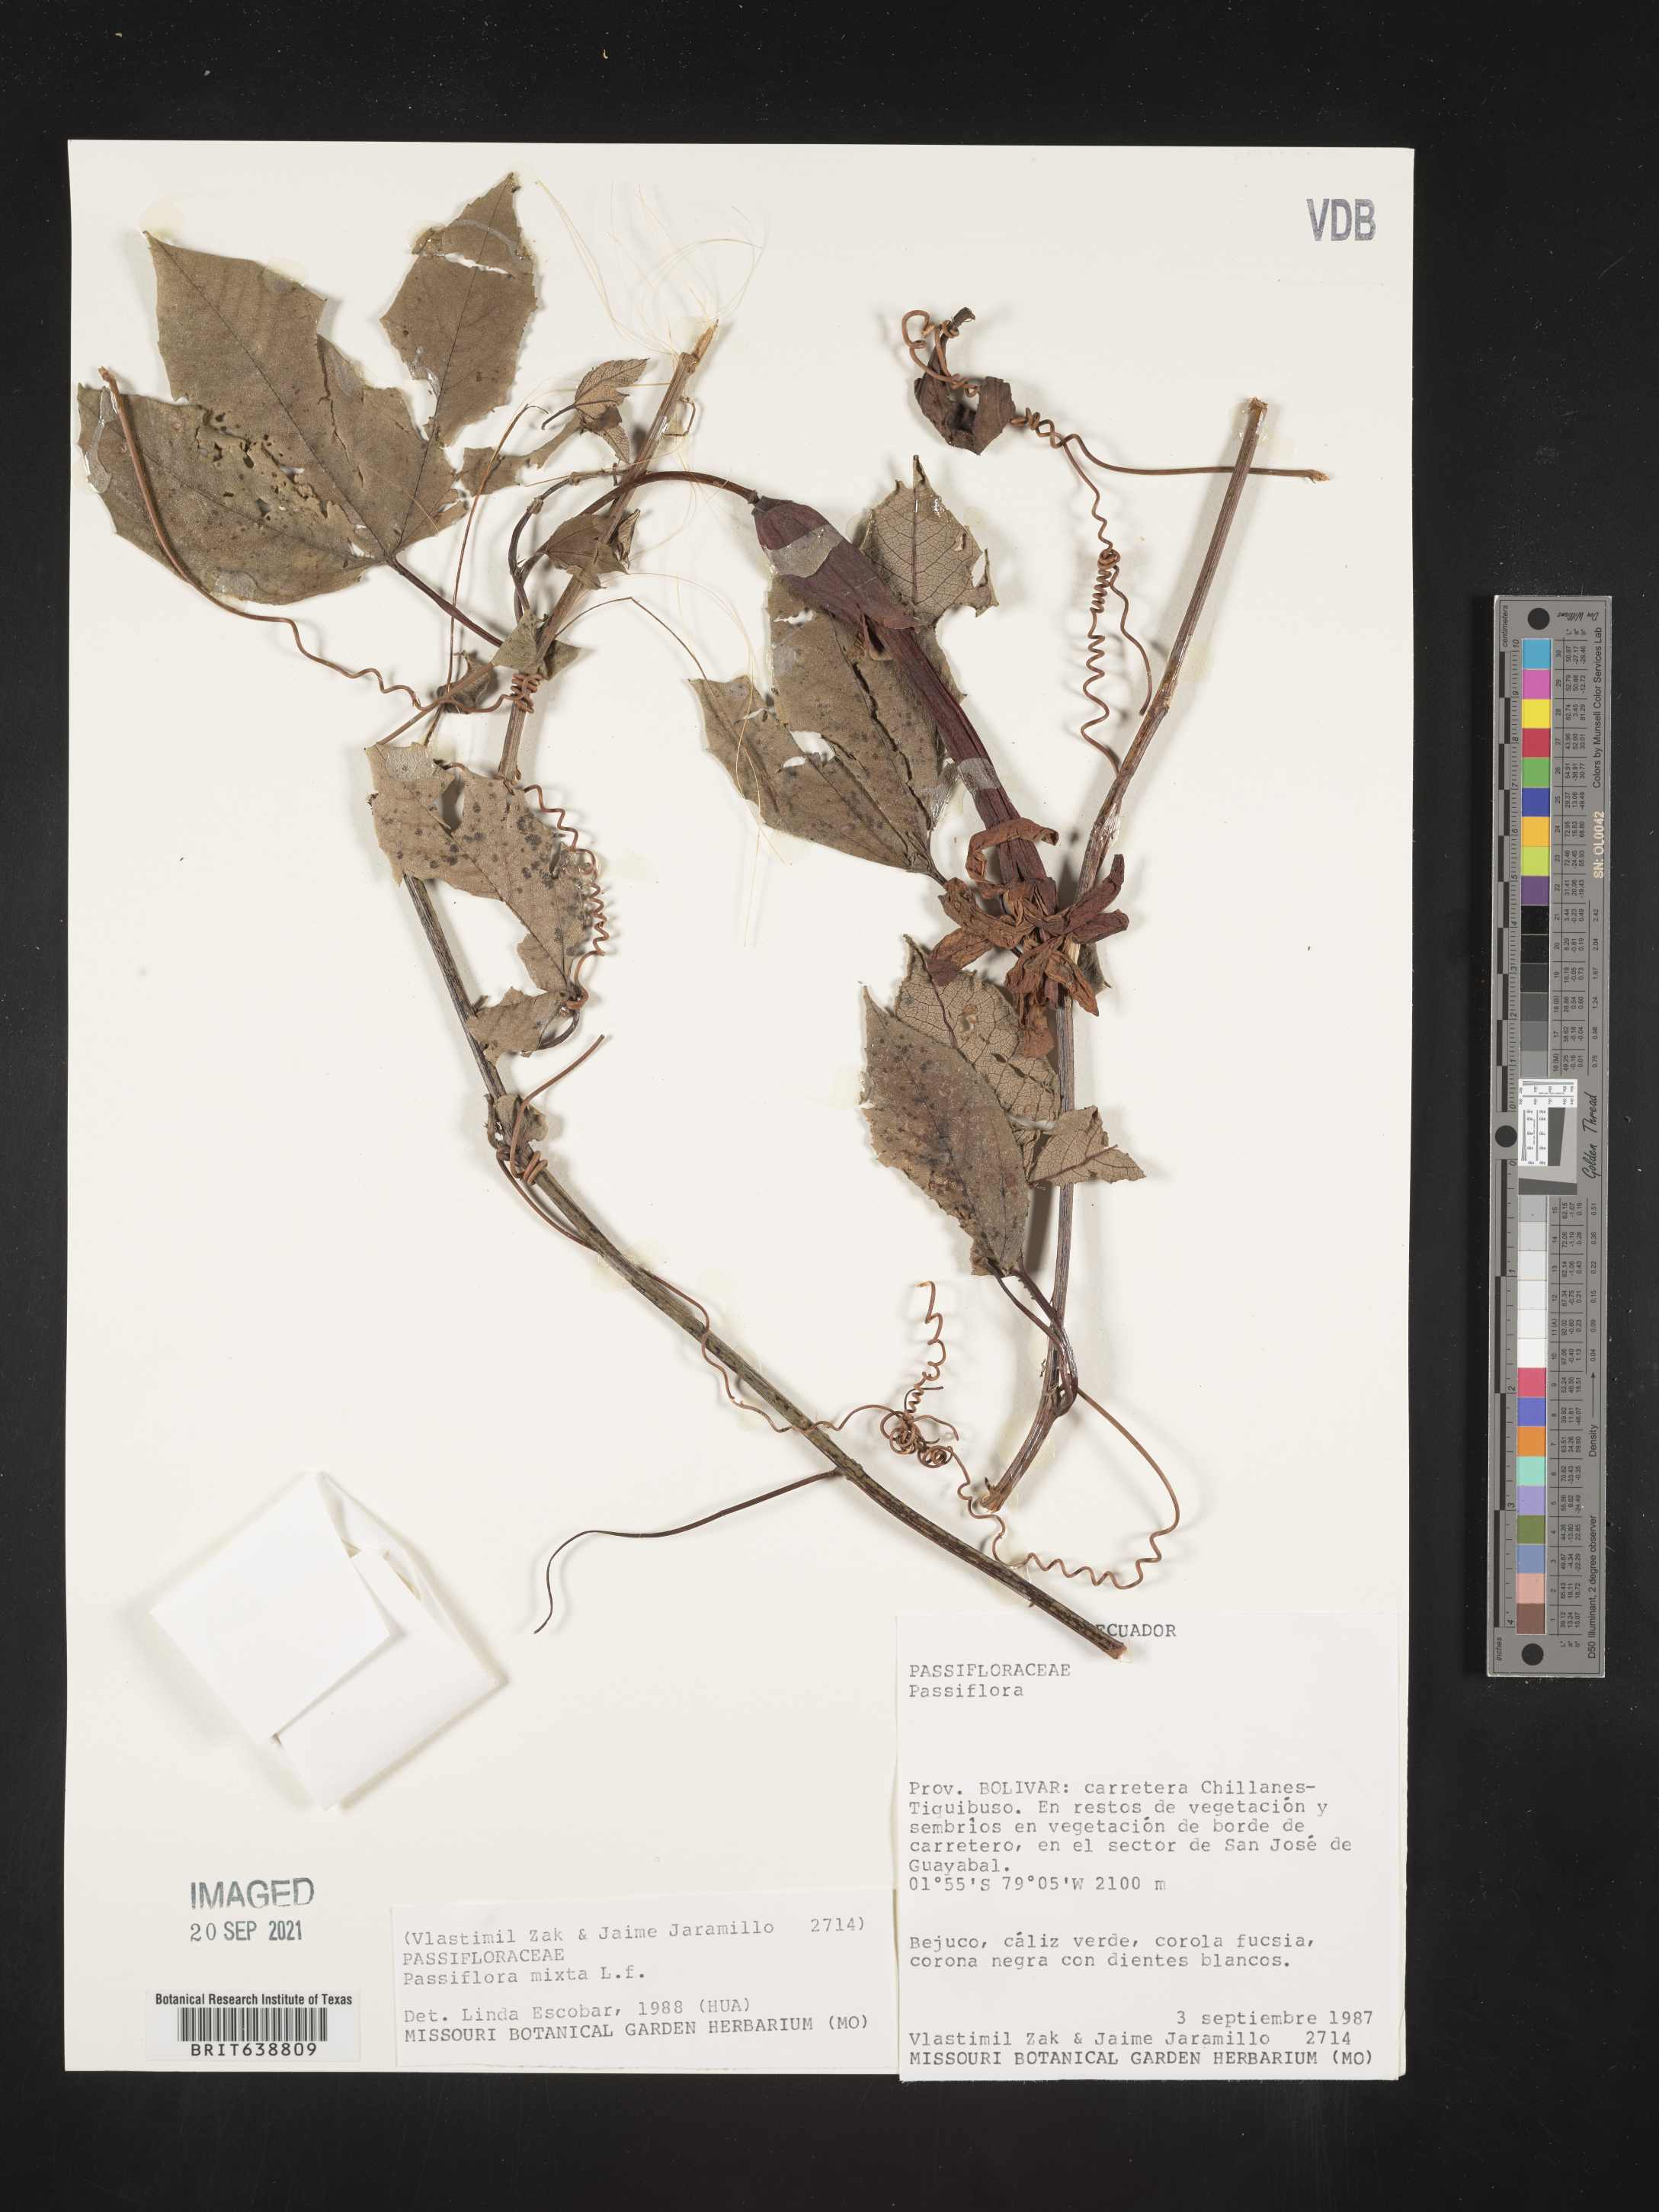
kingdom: Plantae
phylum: Tracheophyta
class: Magnoliopsida
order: Malpighiales
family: Passifloraceae
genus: Passiflora
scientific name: Passiflora
